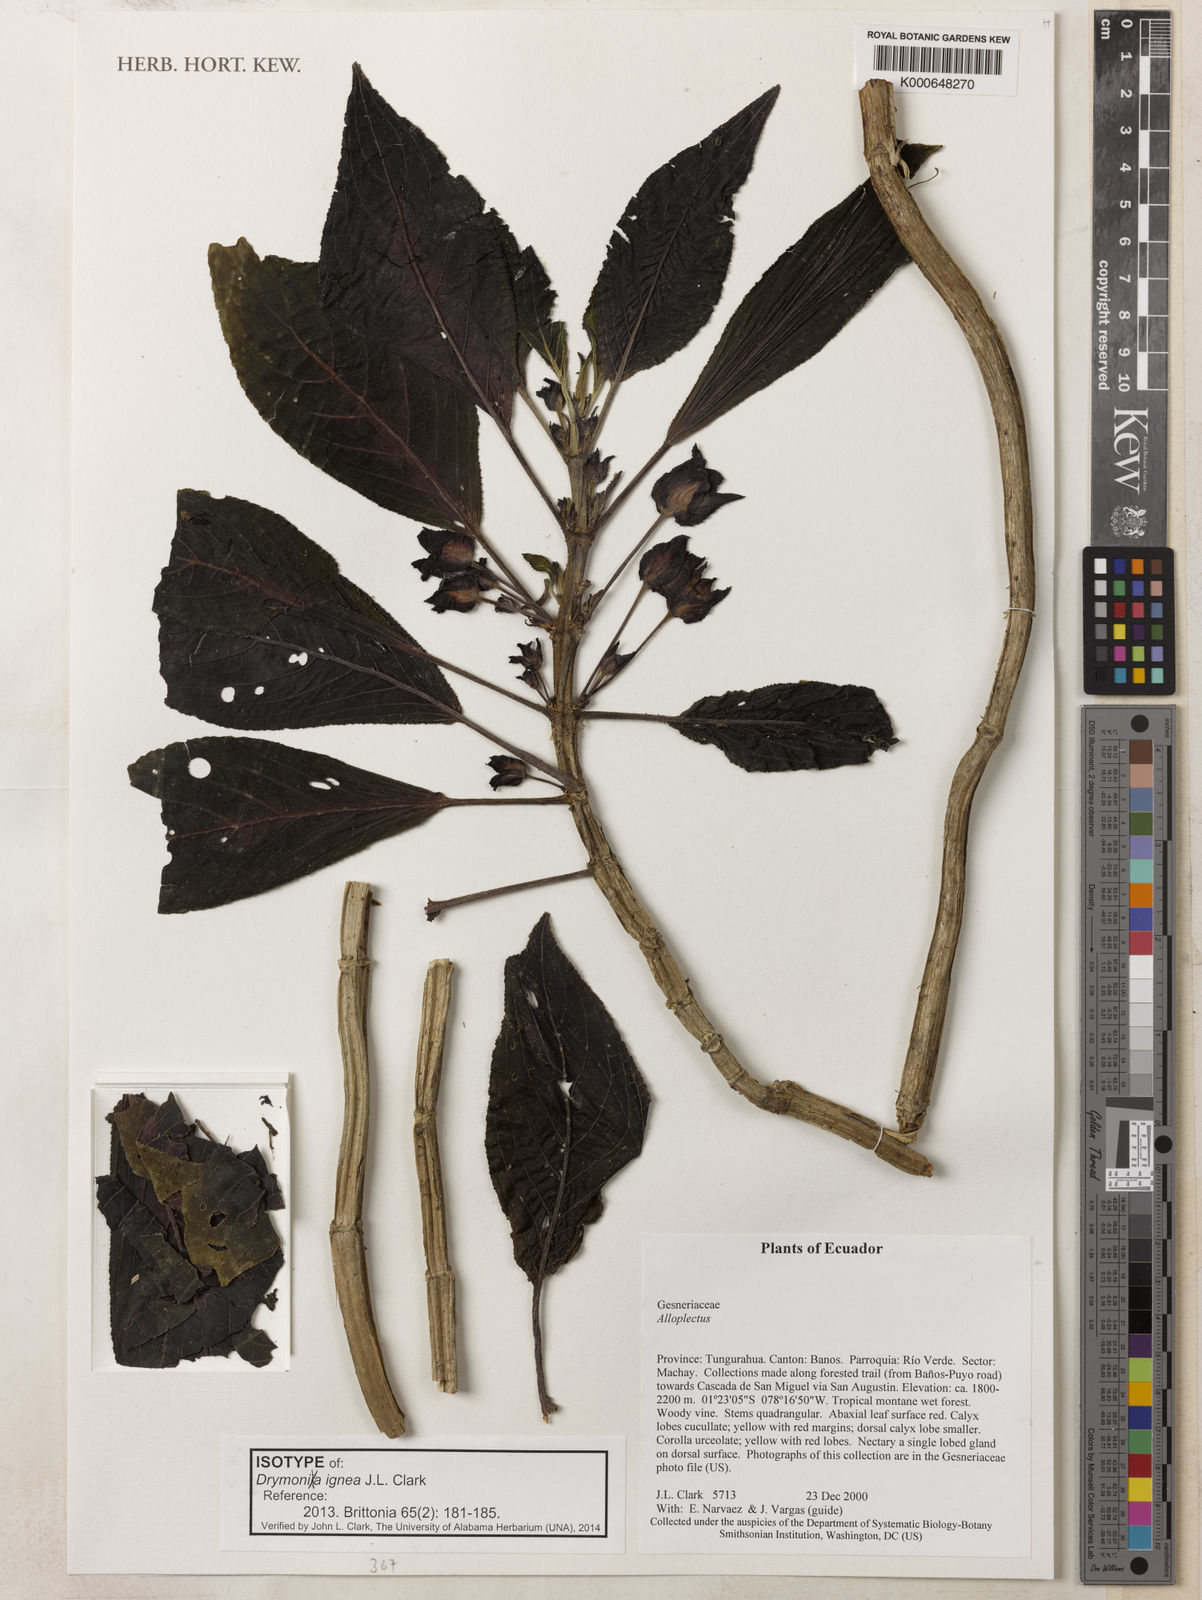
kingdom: Plantae
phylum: Tracheophyta
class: Magnoliopsida
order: Lamiales
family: Gesneriaceae
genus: Drymonia
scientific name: Drymonia ignea
